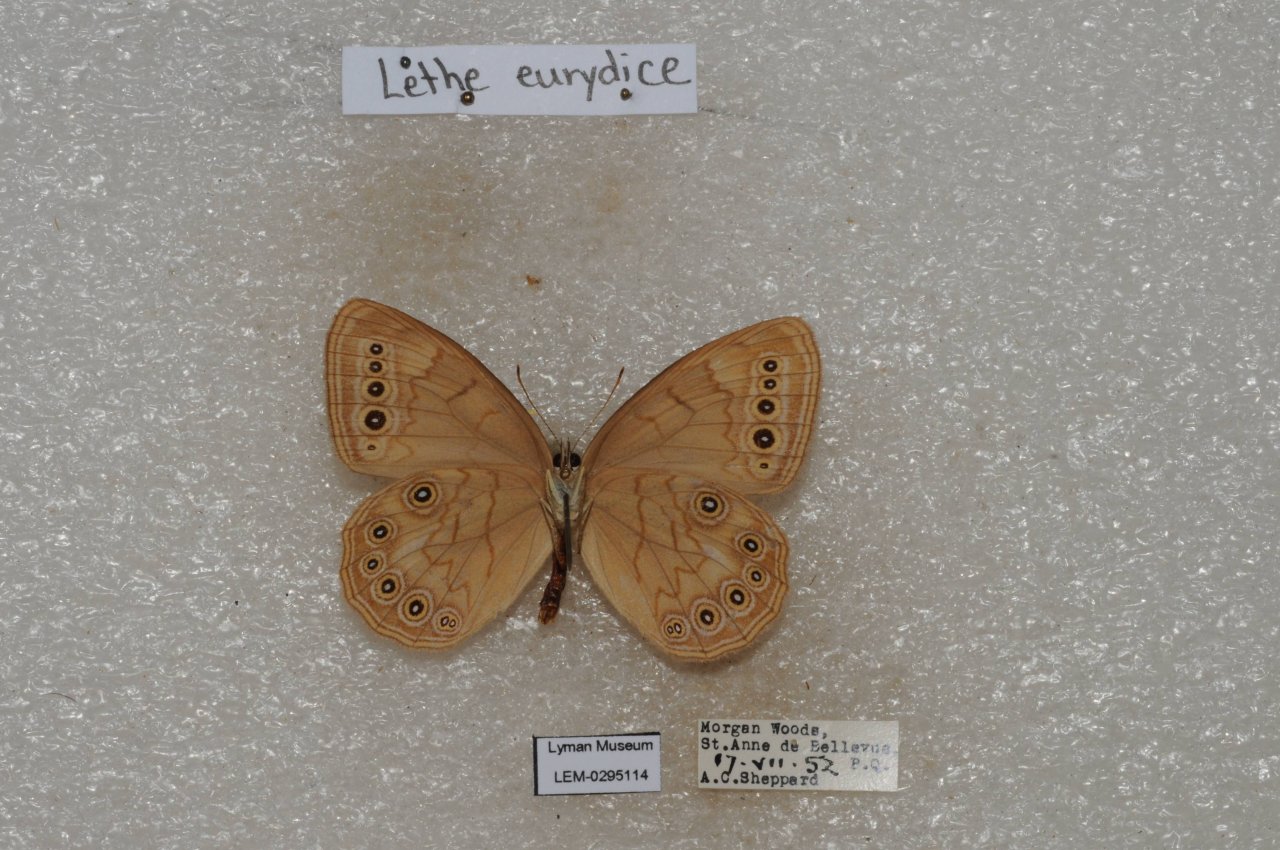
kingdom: Animalia
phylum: Arthropoda
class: Insecta
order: Lepidoptera
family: Nymphalidae
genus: Lethe
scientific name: Lethe eurydice
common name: Eyed Brown
